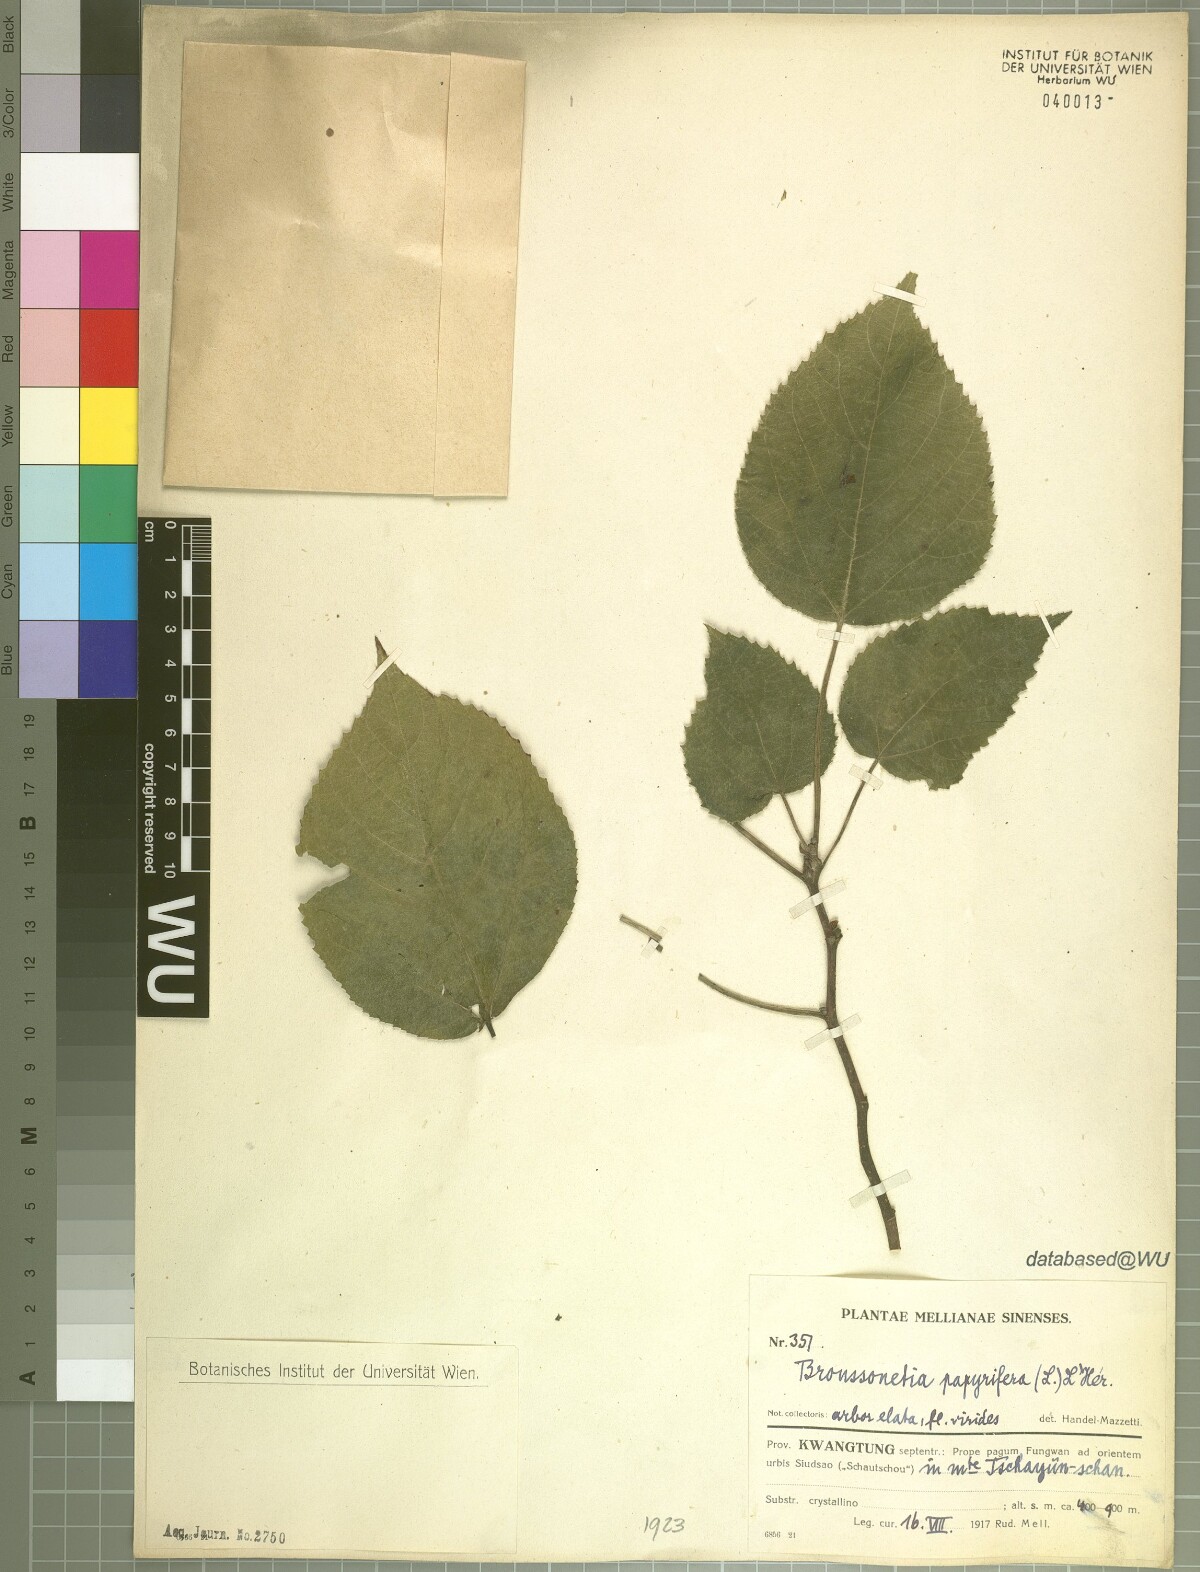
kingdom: Plantae
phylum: Tracheophyta
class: Magnoliopsida
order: Rosales
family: Moraceae
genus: Broussonetia
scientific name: Broussonetia papyrifera
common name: Paper mulberry
